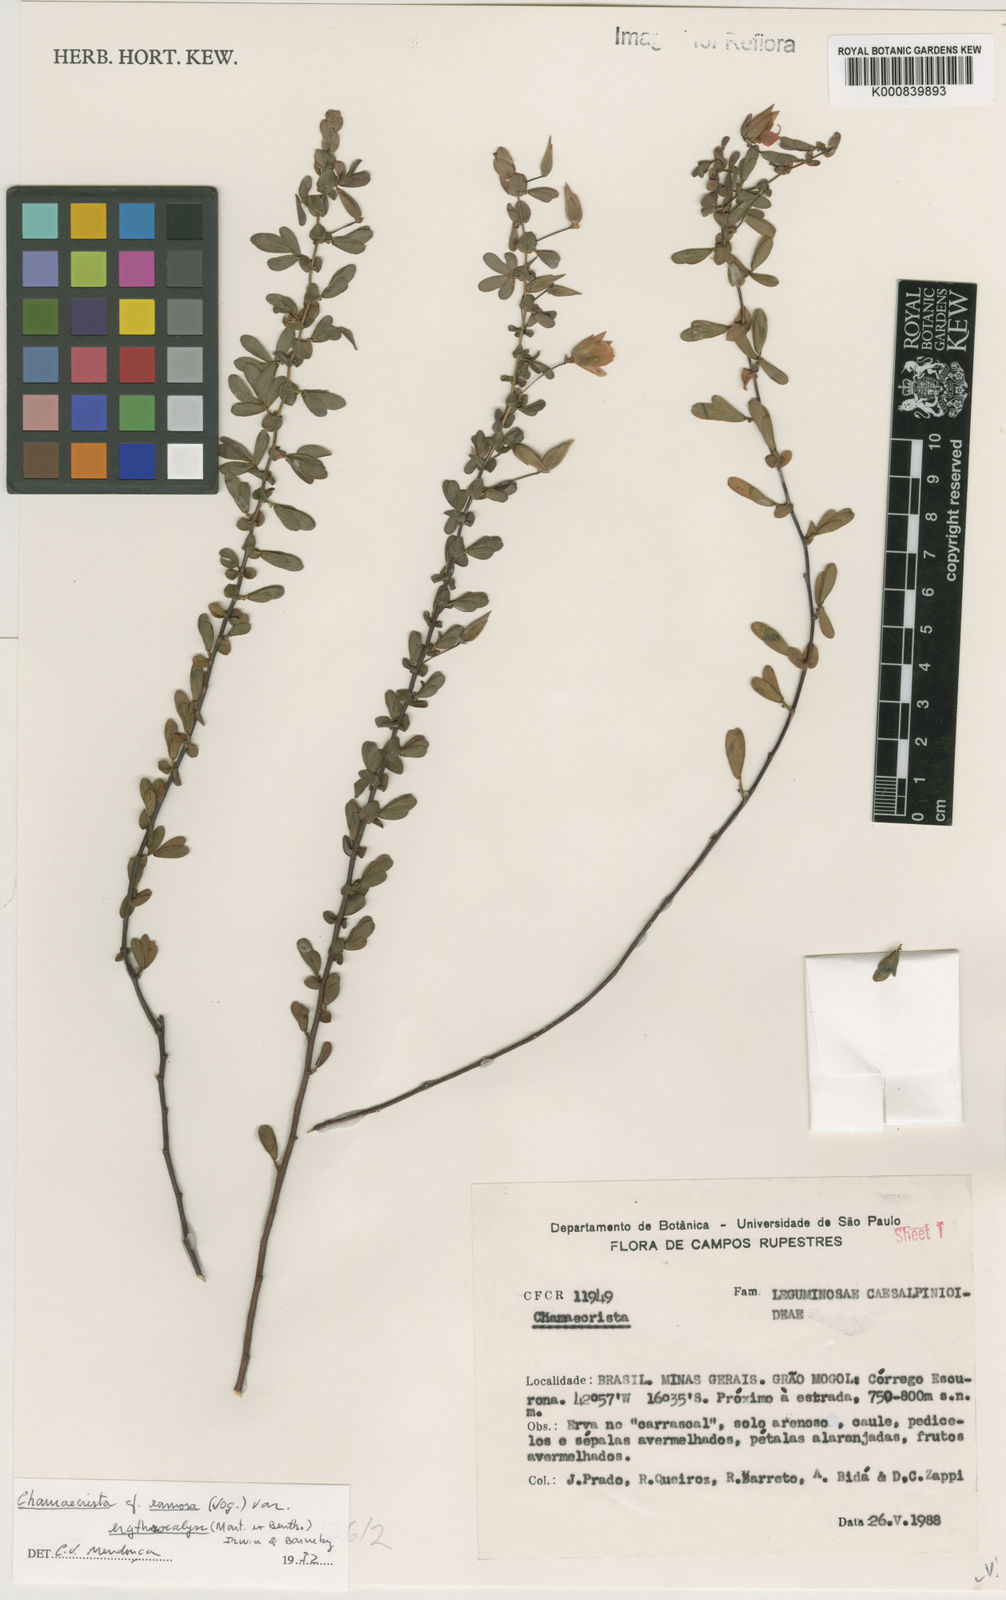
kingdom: Plantae
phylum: Tracheophyta
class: Magnoliopsida
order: Fabales
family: Fabaceae
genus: Chamaecrista
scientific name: Chamaecrista ramosa
